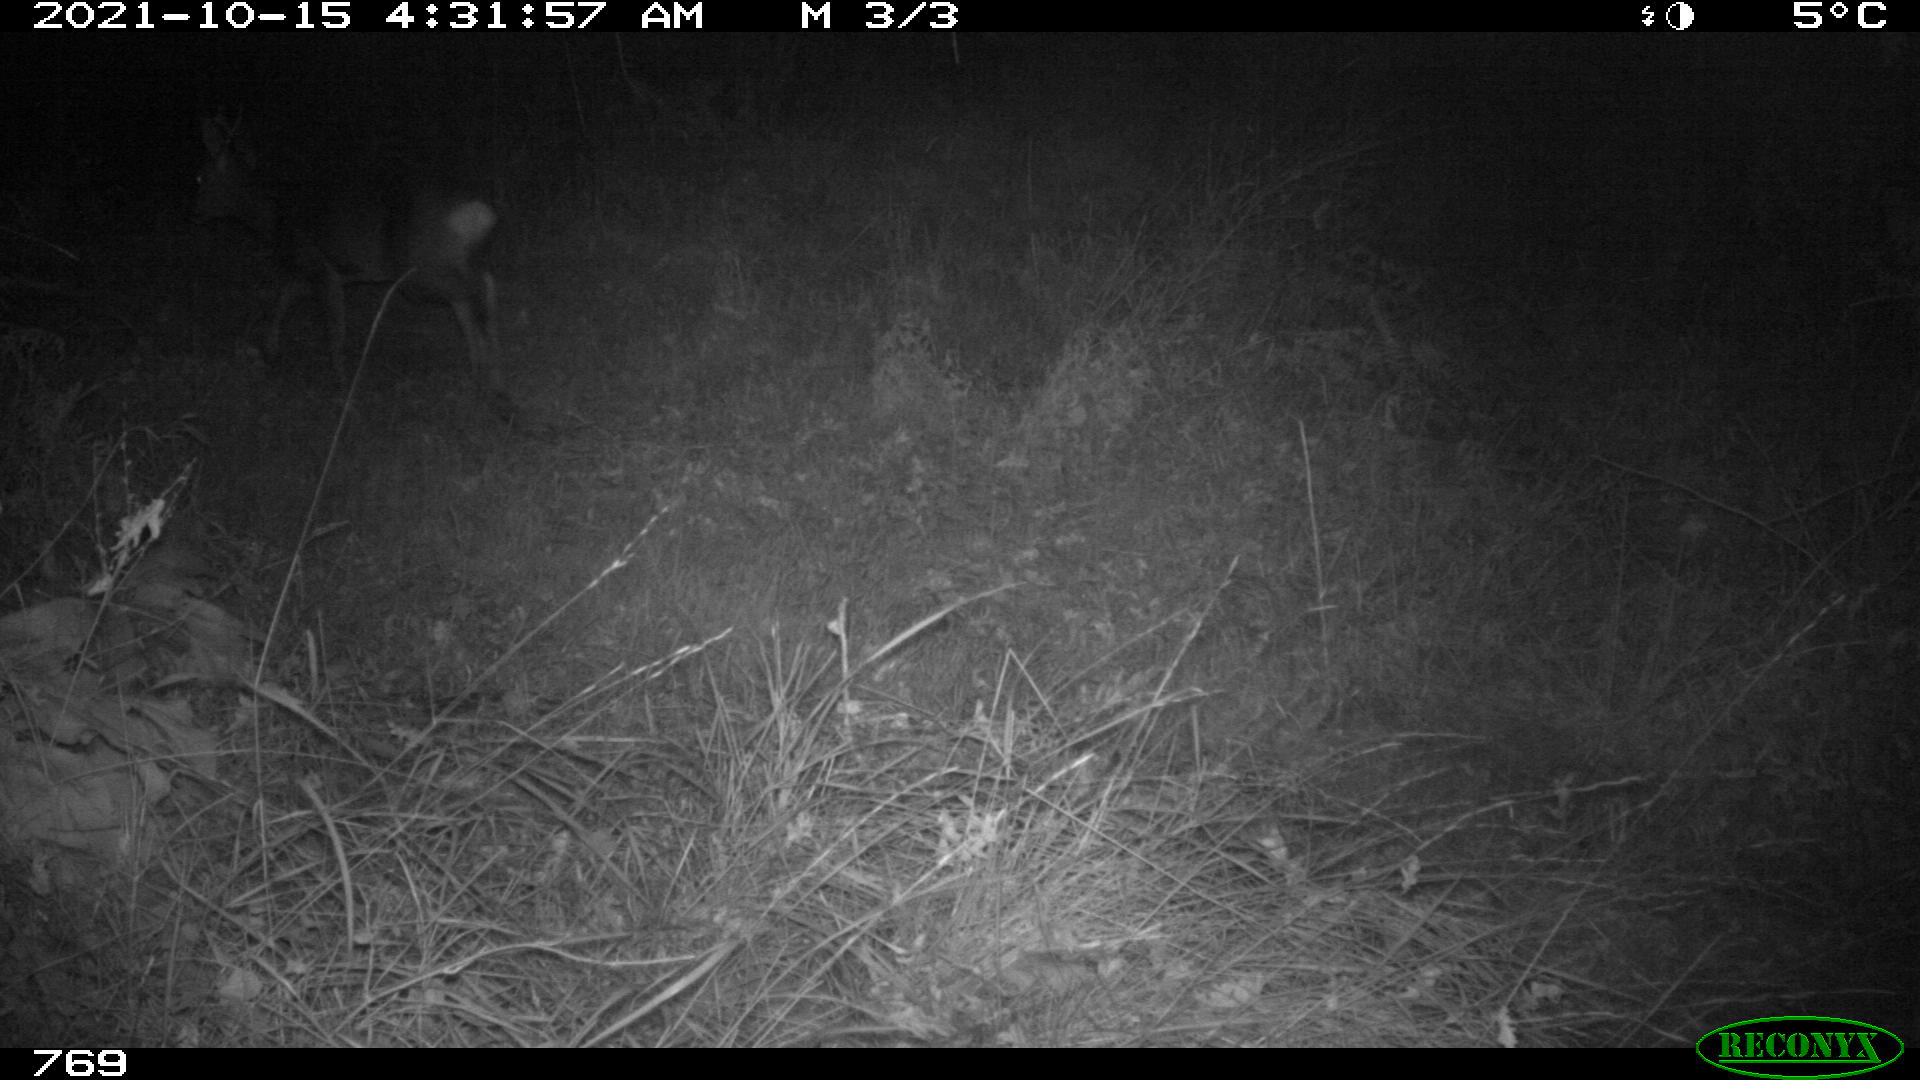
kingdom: Animalia
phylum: Chordata
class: Mammalia
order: Artiodactyla
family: Cervidae
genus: Capreolus
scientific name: Capreolus capreolus
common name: Western roe deer
